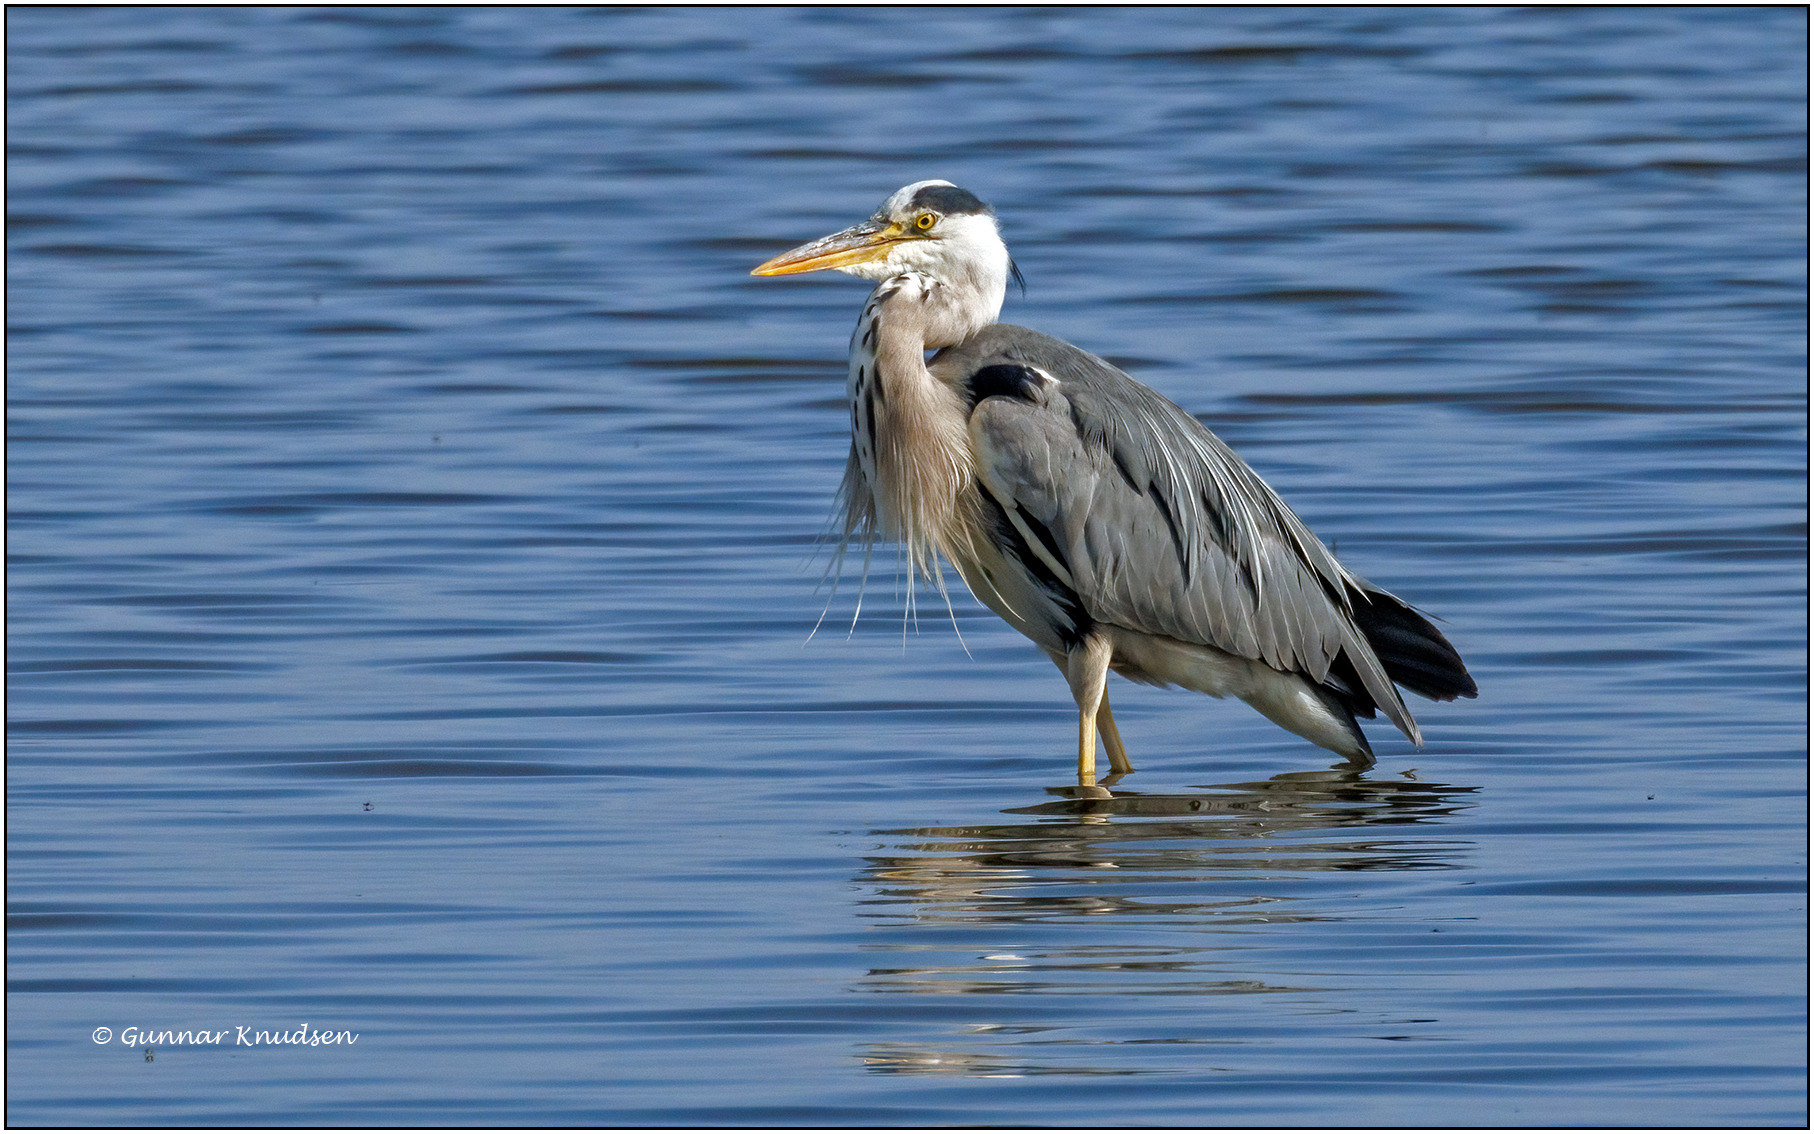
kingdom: Animalia
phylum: Chordata
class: Aves
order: Pelecaniformes
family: Ardeidae
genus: Ardea
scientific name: Ardea cinerea
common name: Fiskehejre
